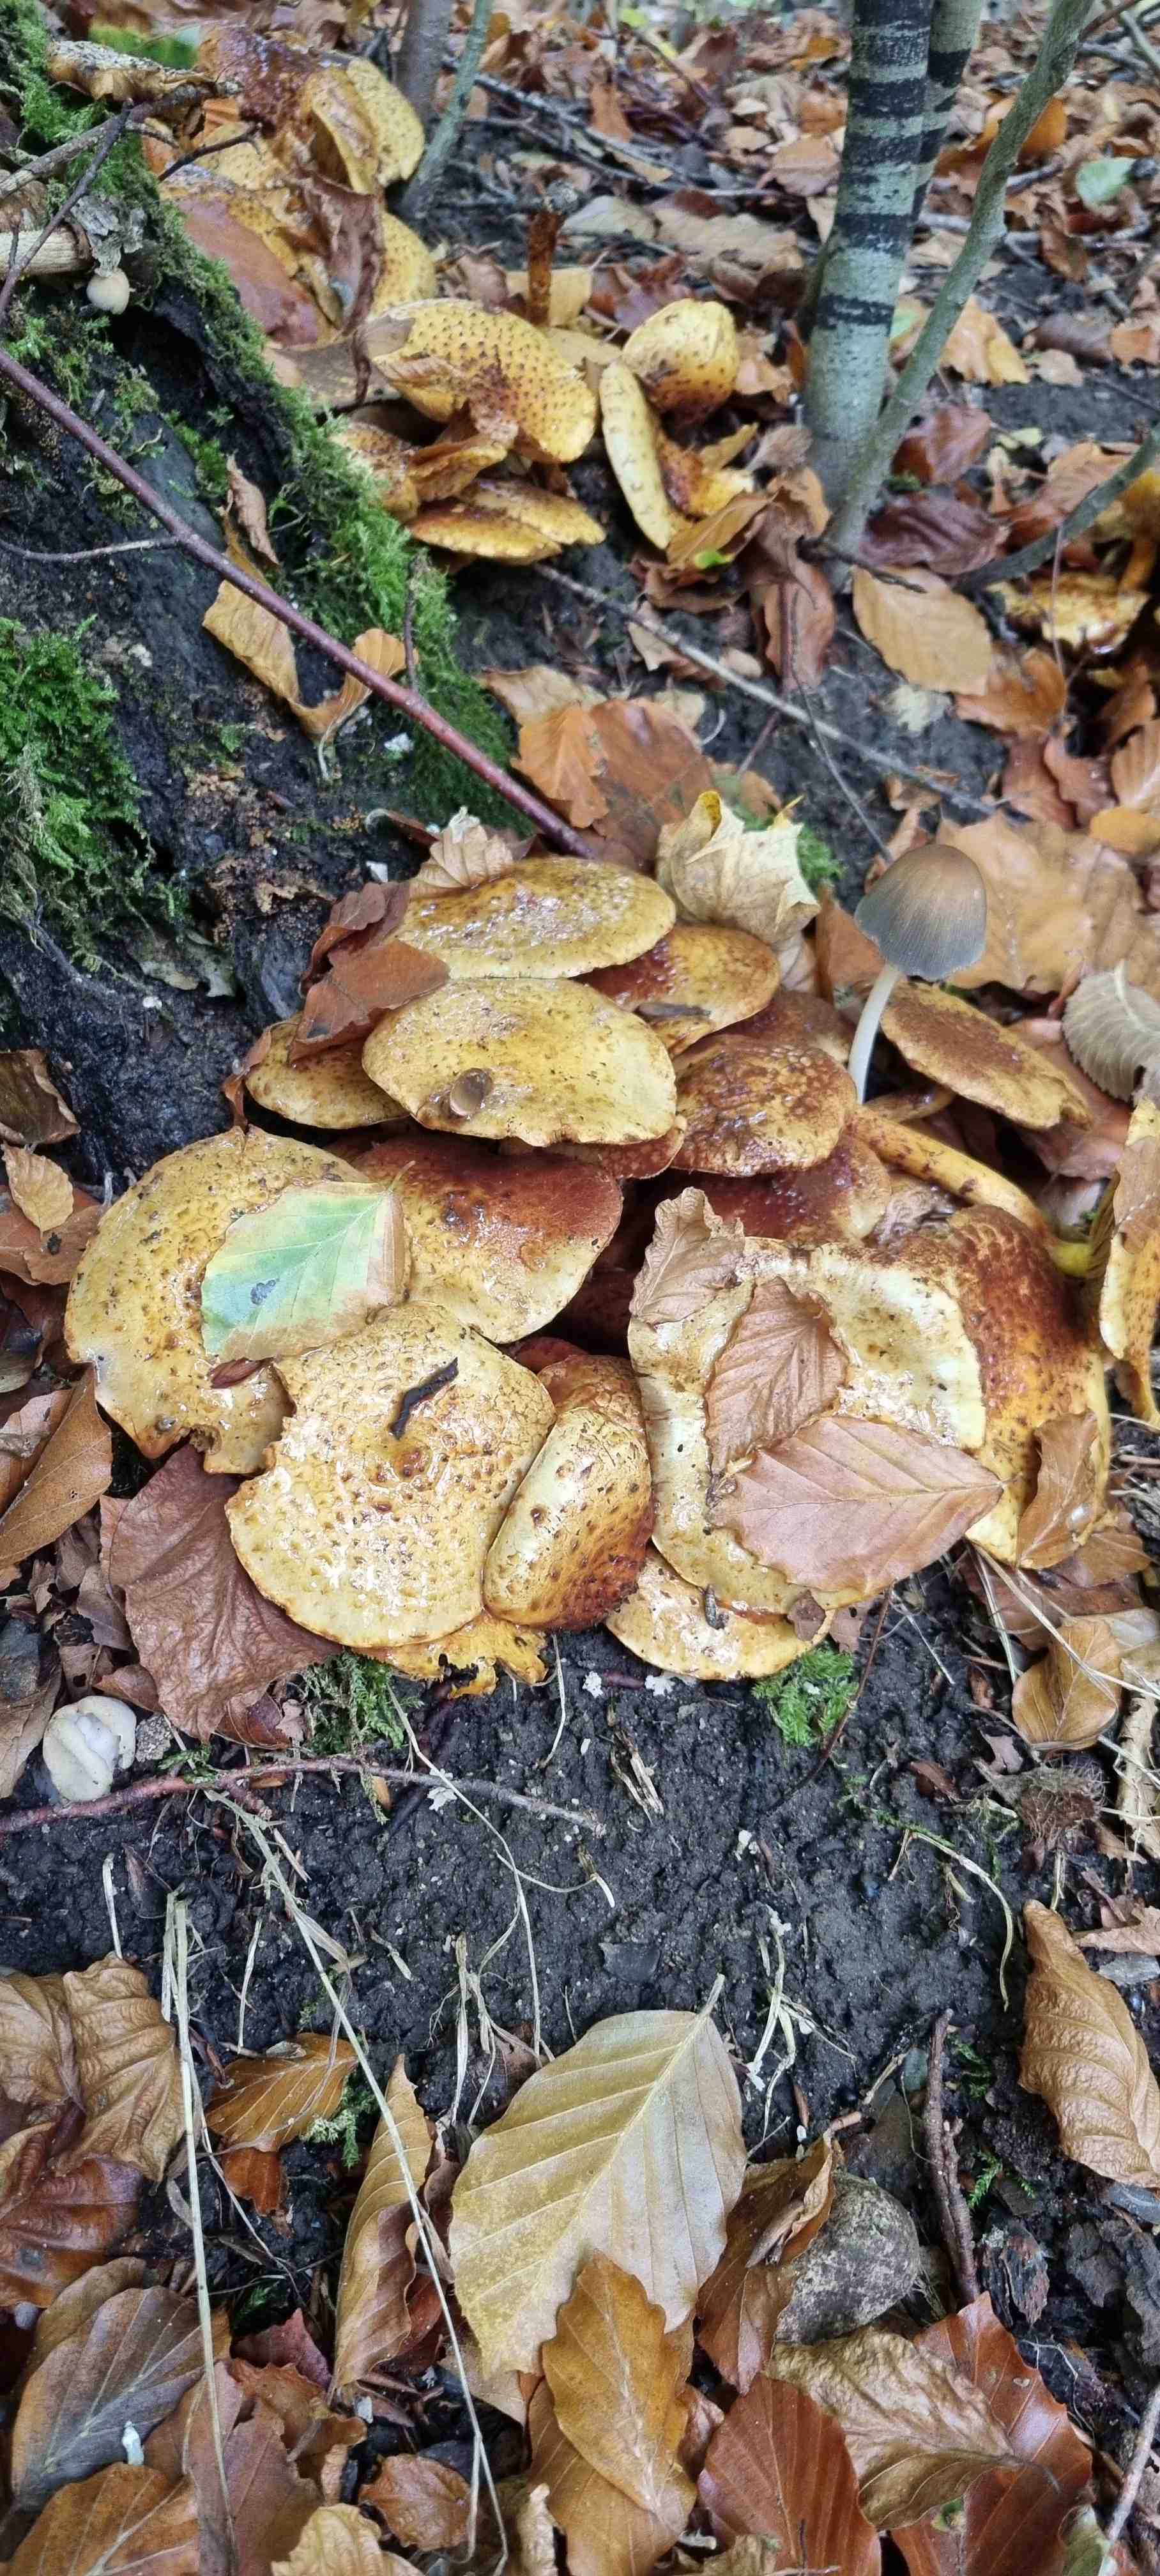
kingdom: Fungi
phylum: Basidiomycota
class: Agaricomycetes
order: Agaricales
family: Strophariaceae
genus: Pholiota
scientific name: Pholiota jahnii
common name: slimet skælhat
